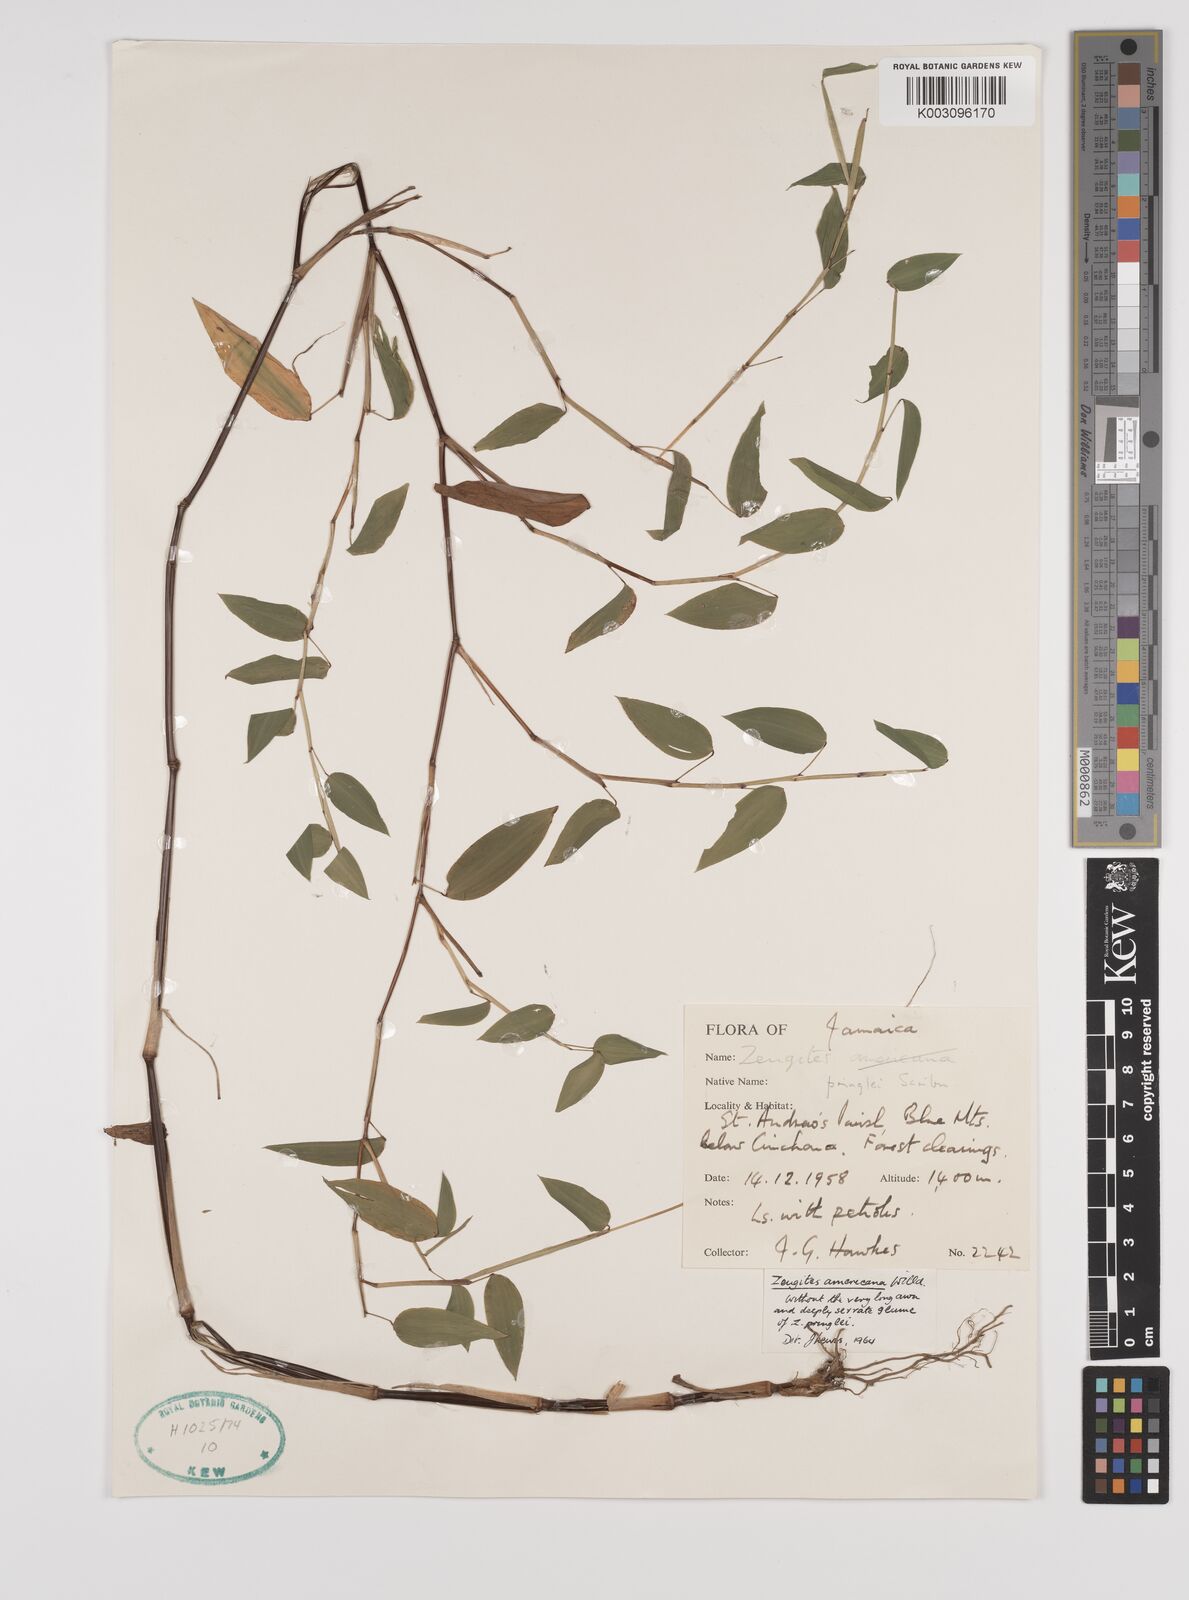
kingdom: Plantae
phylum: Tracheophyta
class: Liliopsida
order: Poales
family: Poaceae
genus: Zeugites
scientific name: Zeugites americanus
